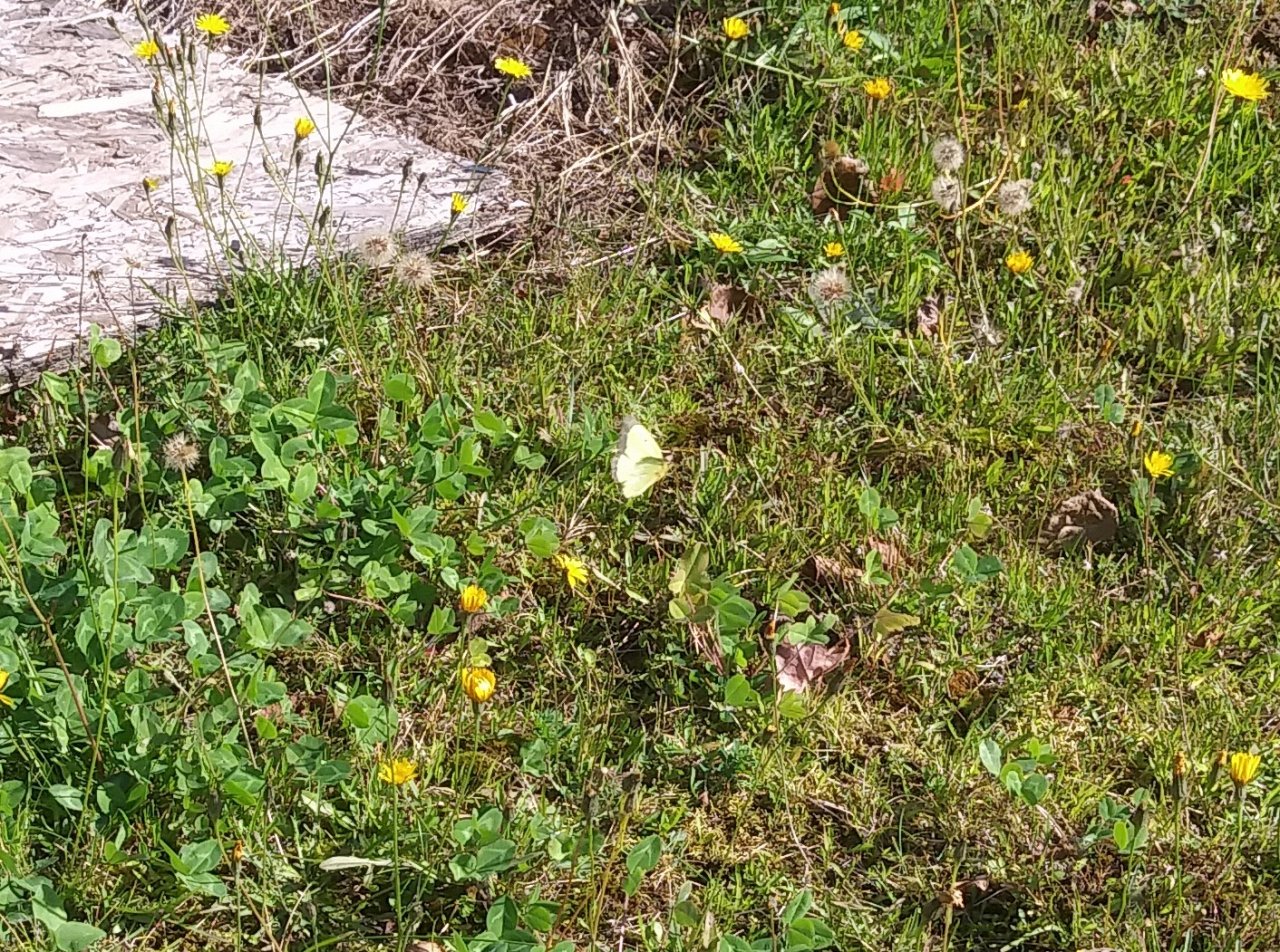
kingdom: Animalia
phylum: Arthropoda
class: Insecta
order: Lepidoptera
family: Pieridae
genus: Colias
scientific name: Colias philodice
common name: Clouded Sulphur
